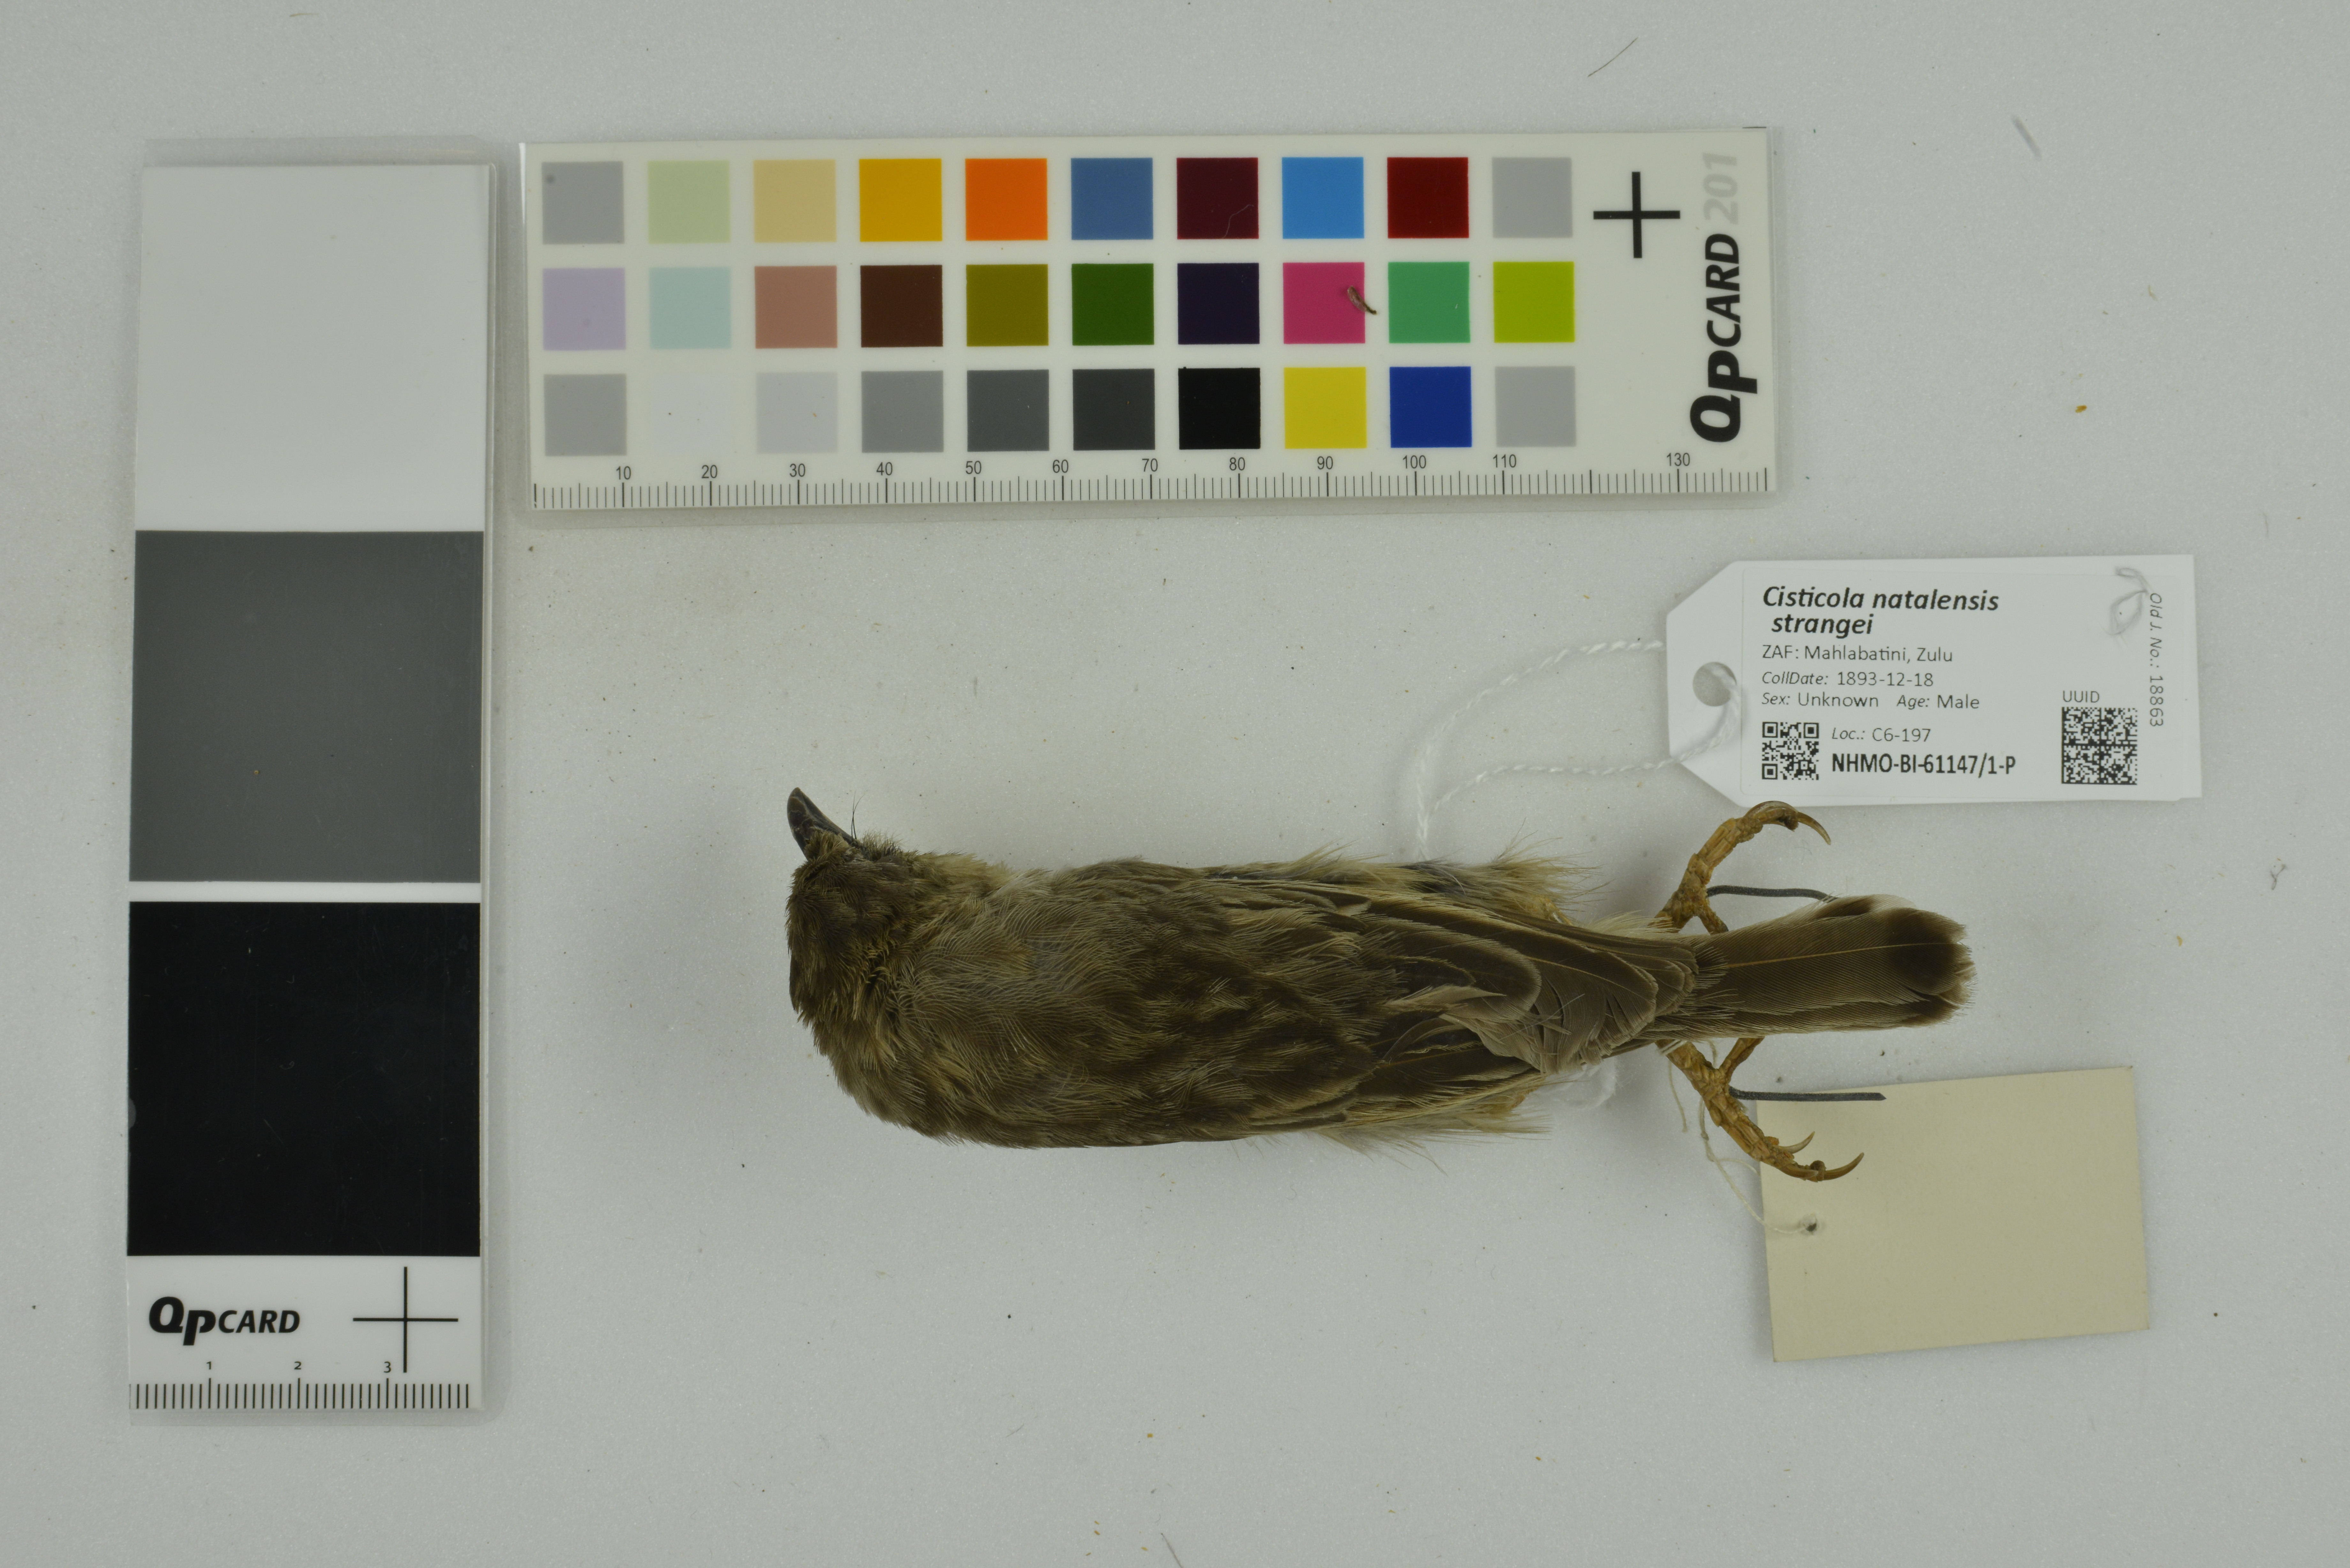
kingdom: Animalia
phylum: Chordata
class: Aves
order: Passeriformes
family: Cisticolidae
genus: Cisticola
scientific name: Cisticola natalensis
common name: Croaking cisticola
